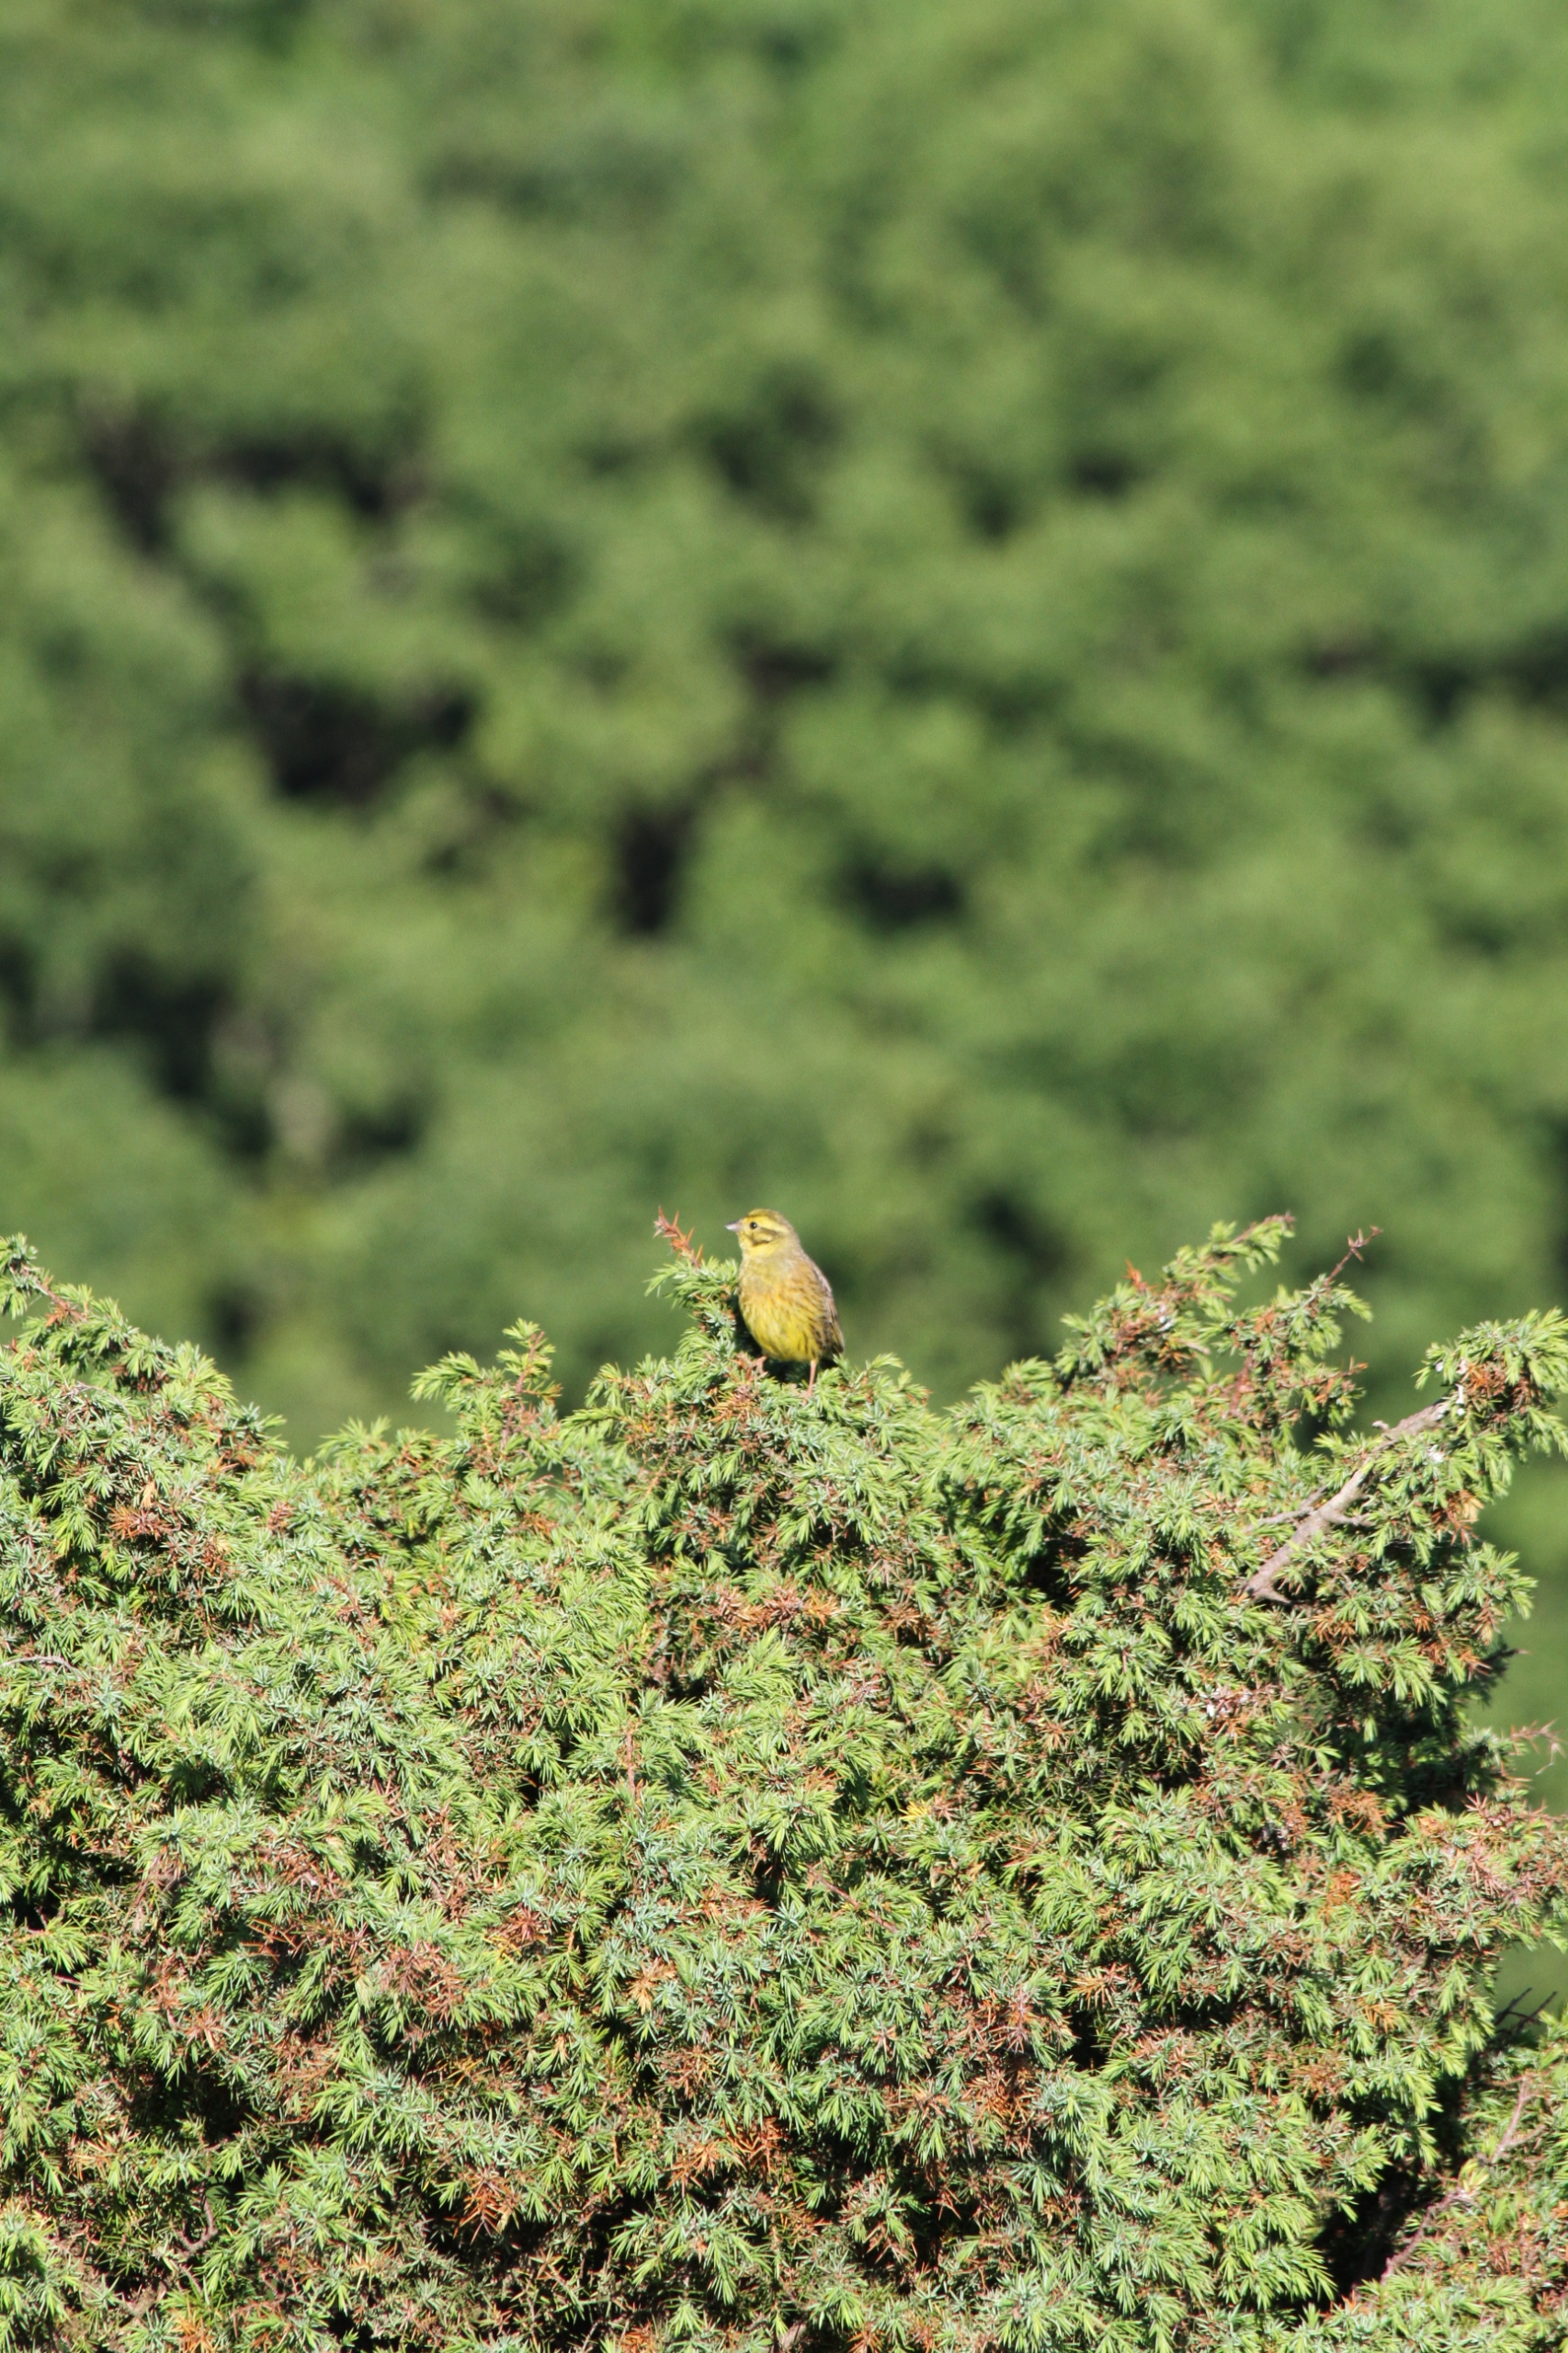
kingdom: Animalia
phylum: Chordata
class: Aves
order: Passeriformes
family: Emberizidae
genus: Emberiza
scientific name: Emberiza citrinella
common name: Gulspurv
